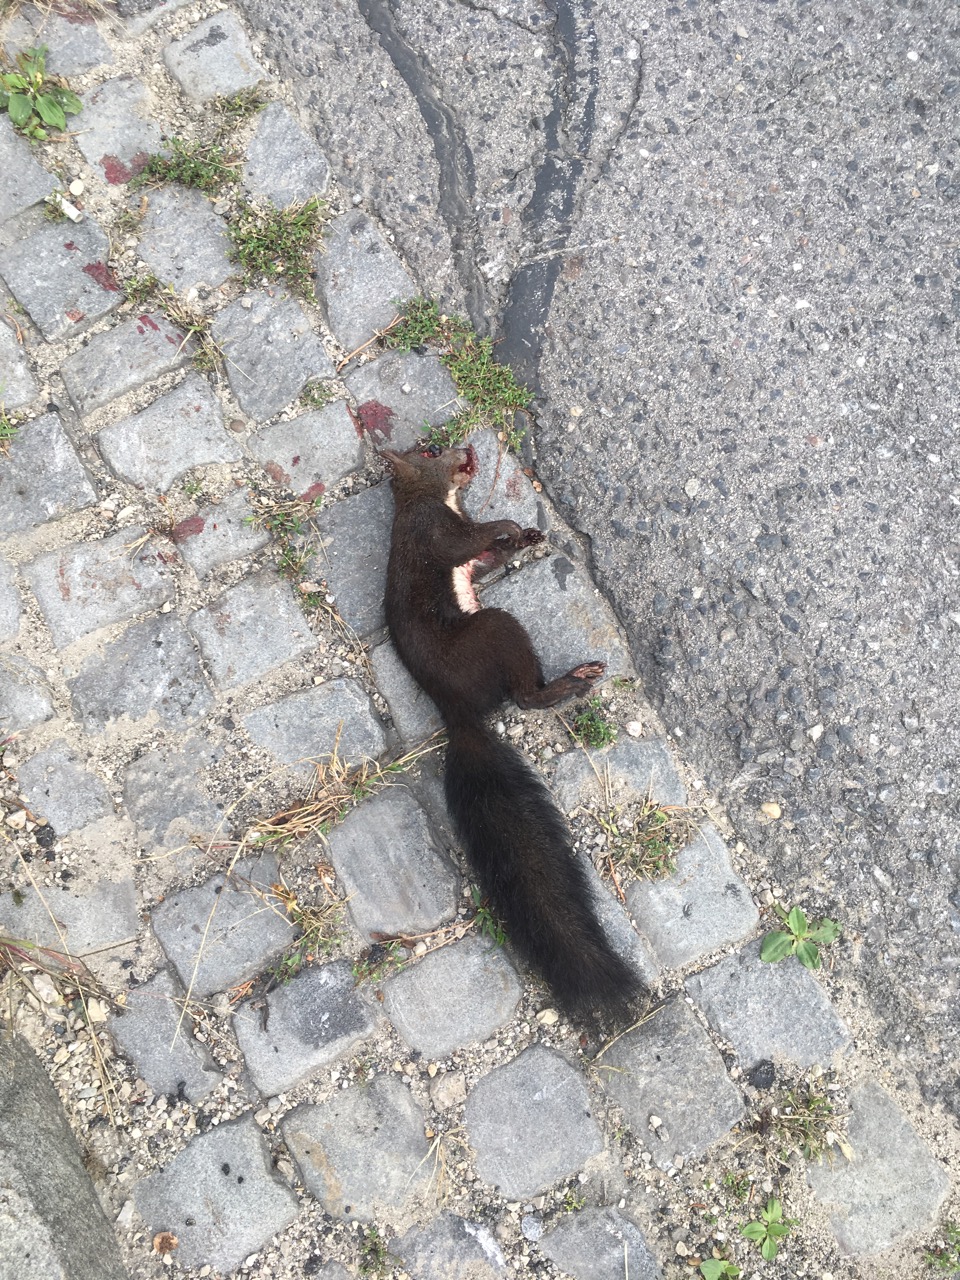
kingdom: Animalia
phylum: Chordata
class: Mammalia
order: Rodentia
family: Sciuridae
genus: Sciurus
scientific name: Sciurus vulgaris
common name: Eurasian red squirrel
